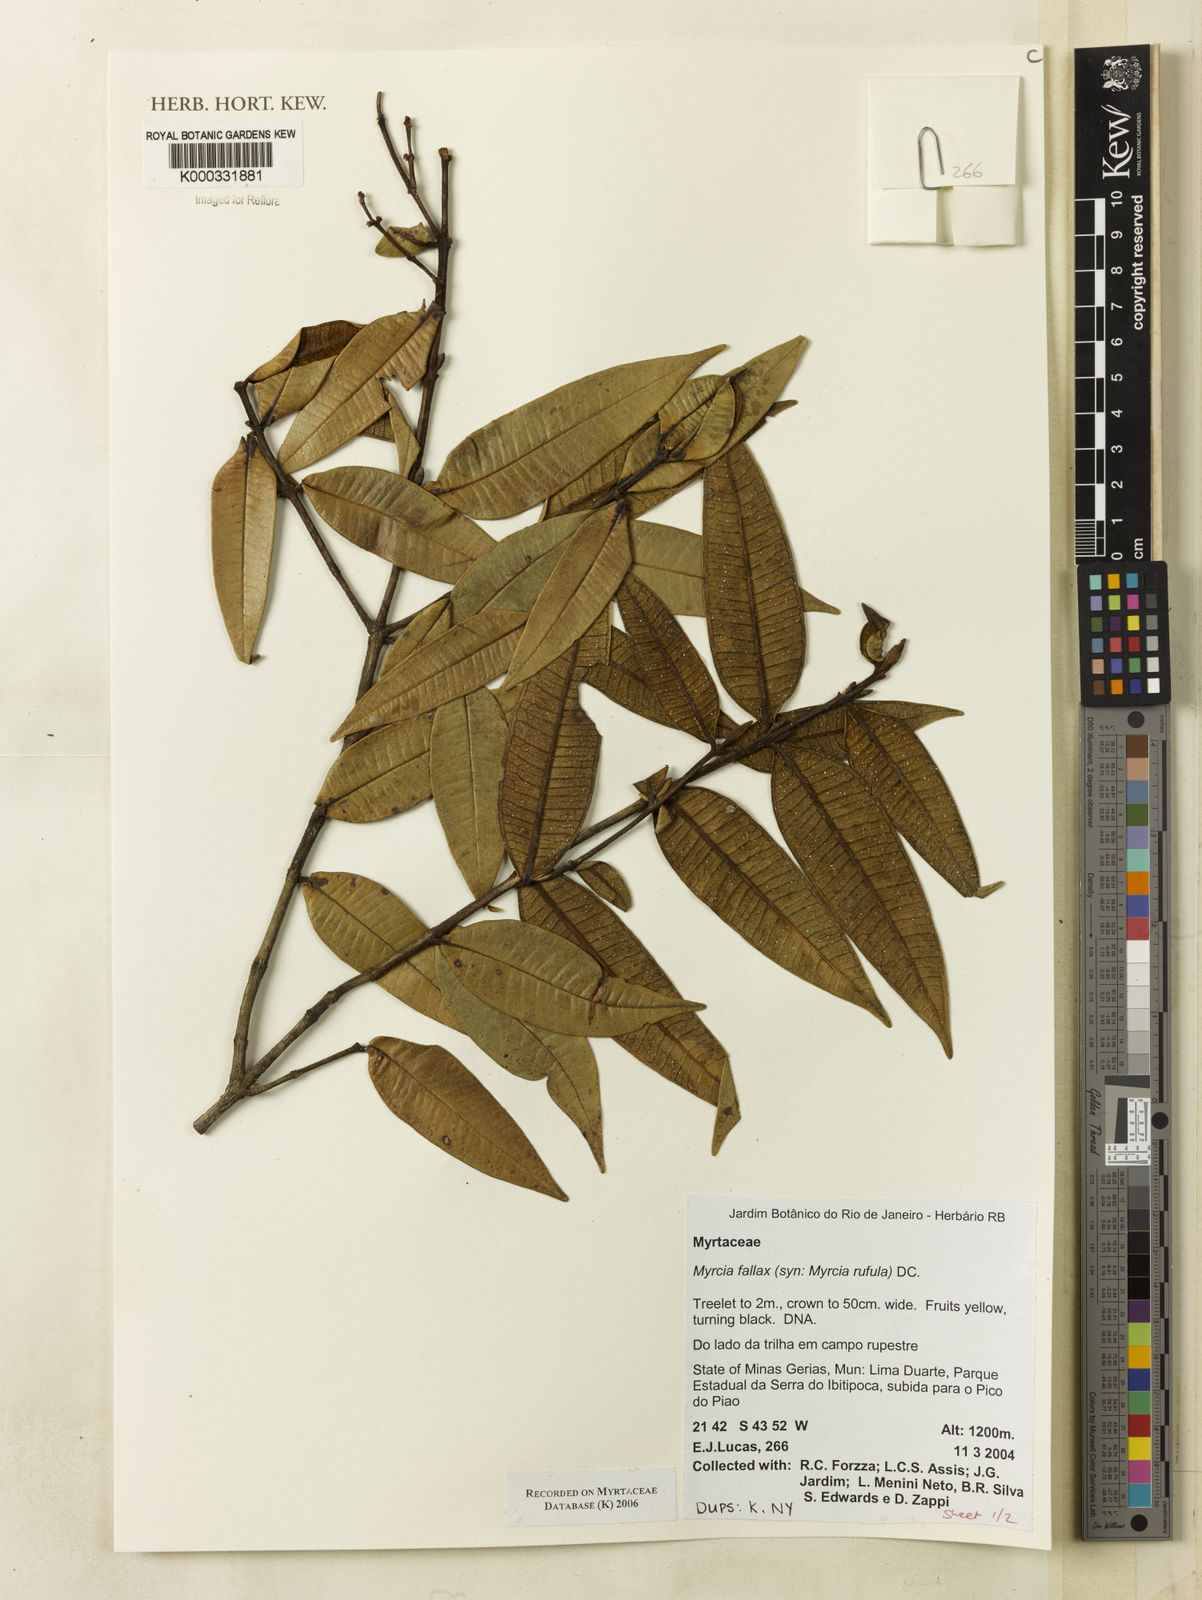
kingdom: Plantae
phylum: Tracheophyta
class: Magnoliopsida
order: Myrtales
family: Myrtaceae
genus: Myrcia
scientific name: Myrcia splendens
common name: Surinam cherry
